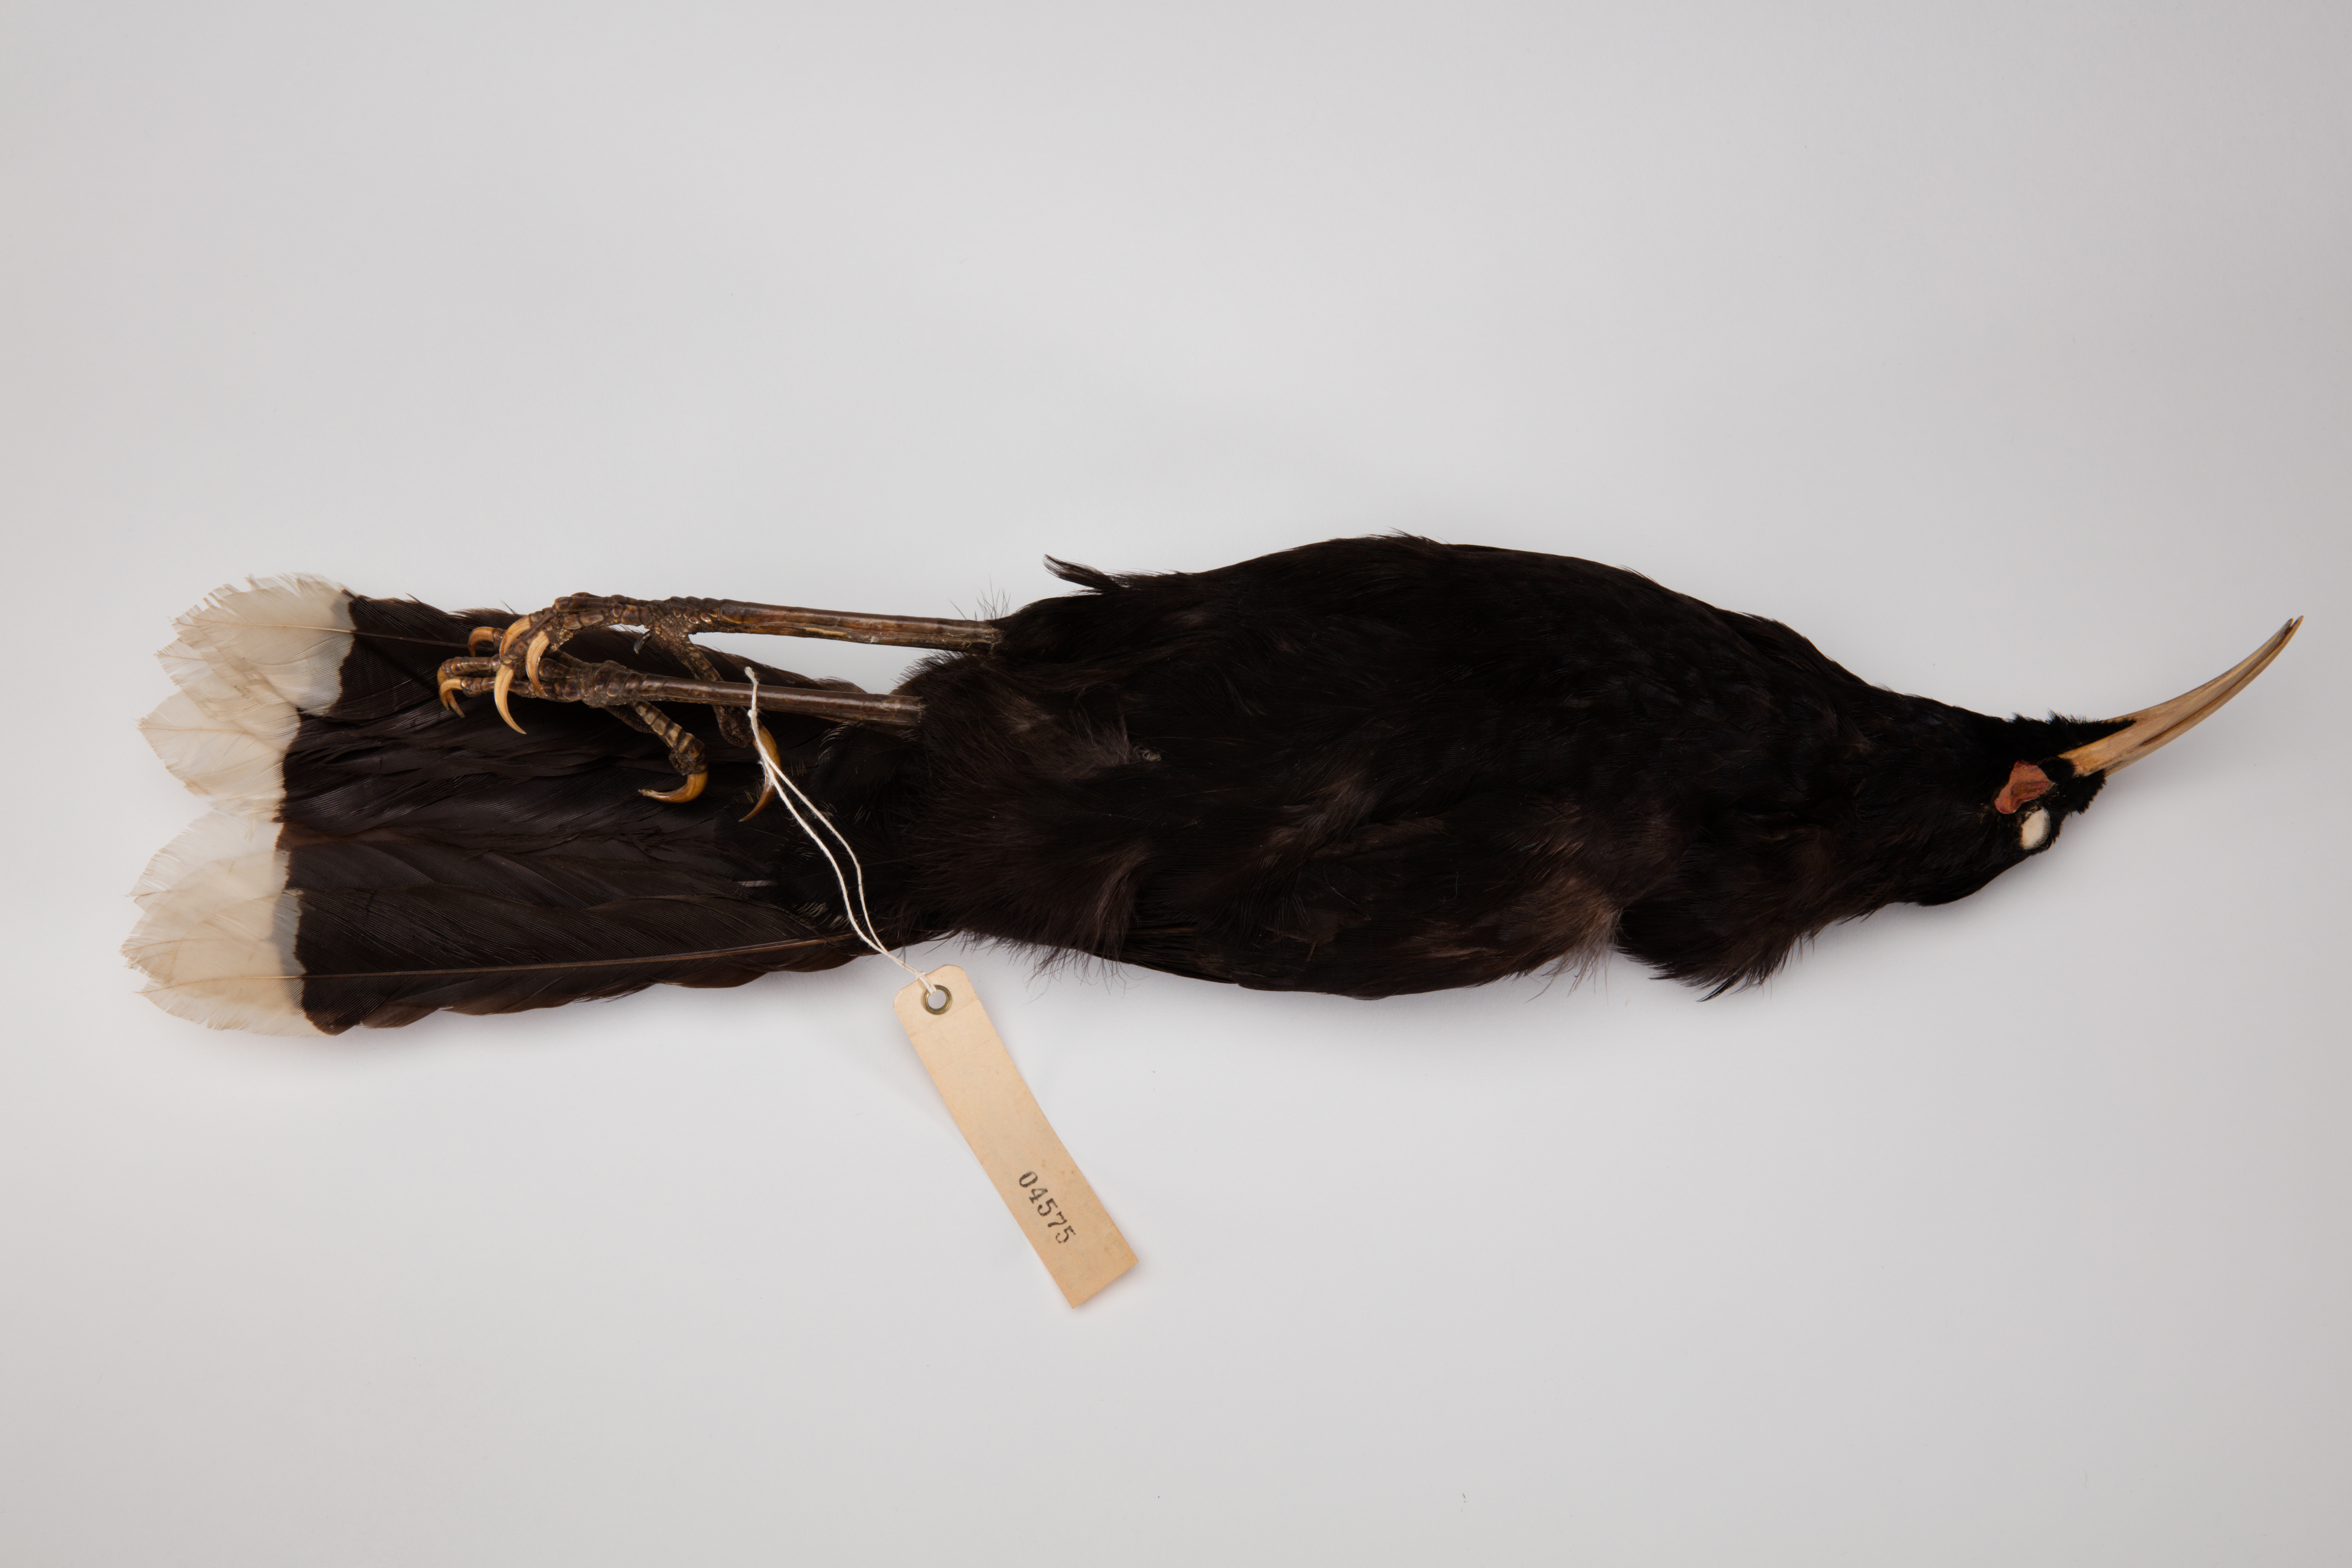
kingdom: Animalia
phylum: Chordata
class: Aves
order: Passeriformes
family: Callaeatidae
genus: Heteralocha
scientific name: Heteralocha acutirostris
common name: Huia
